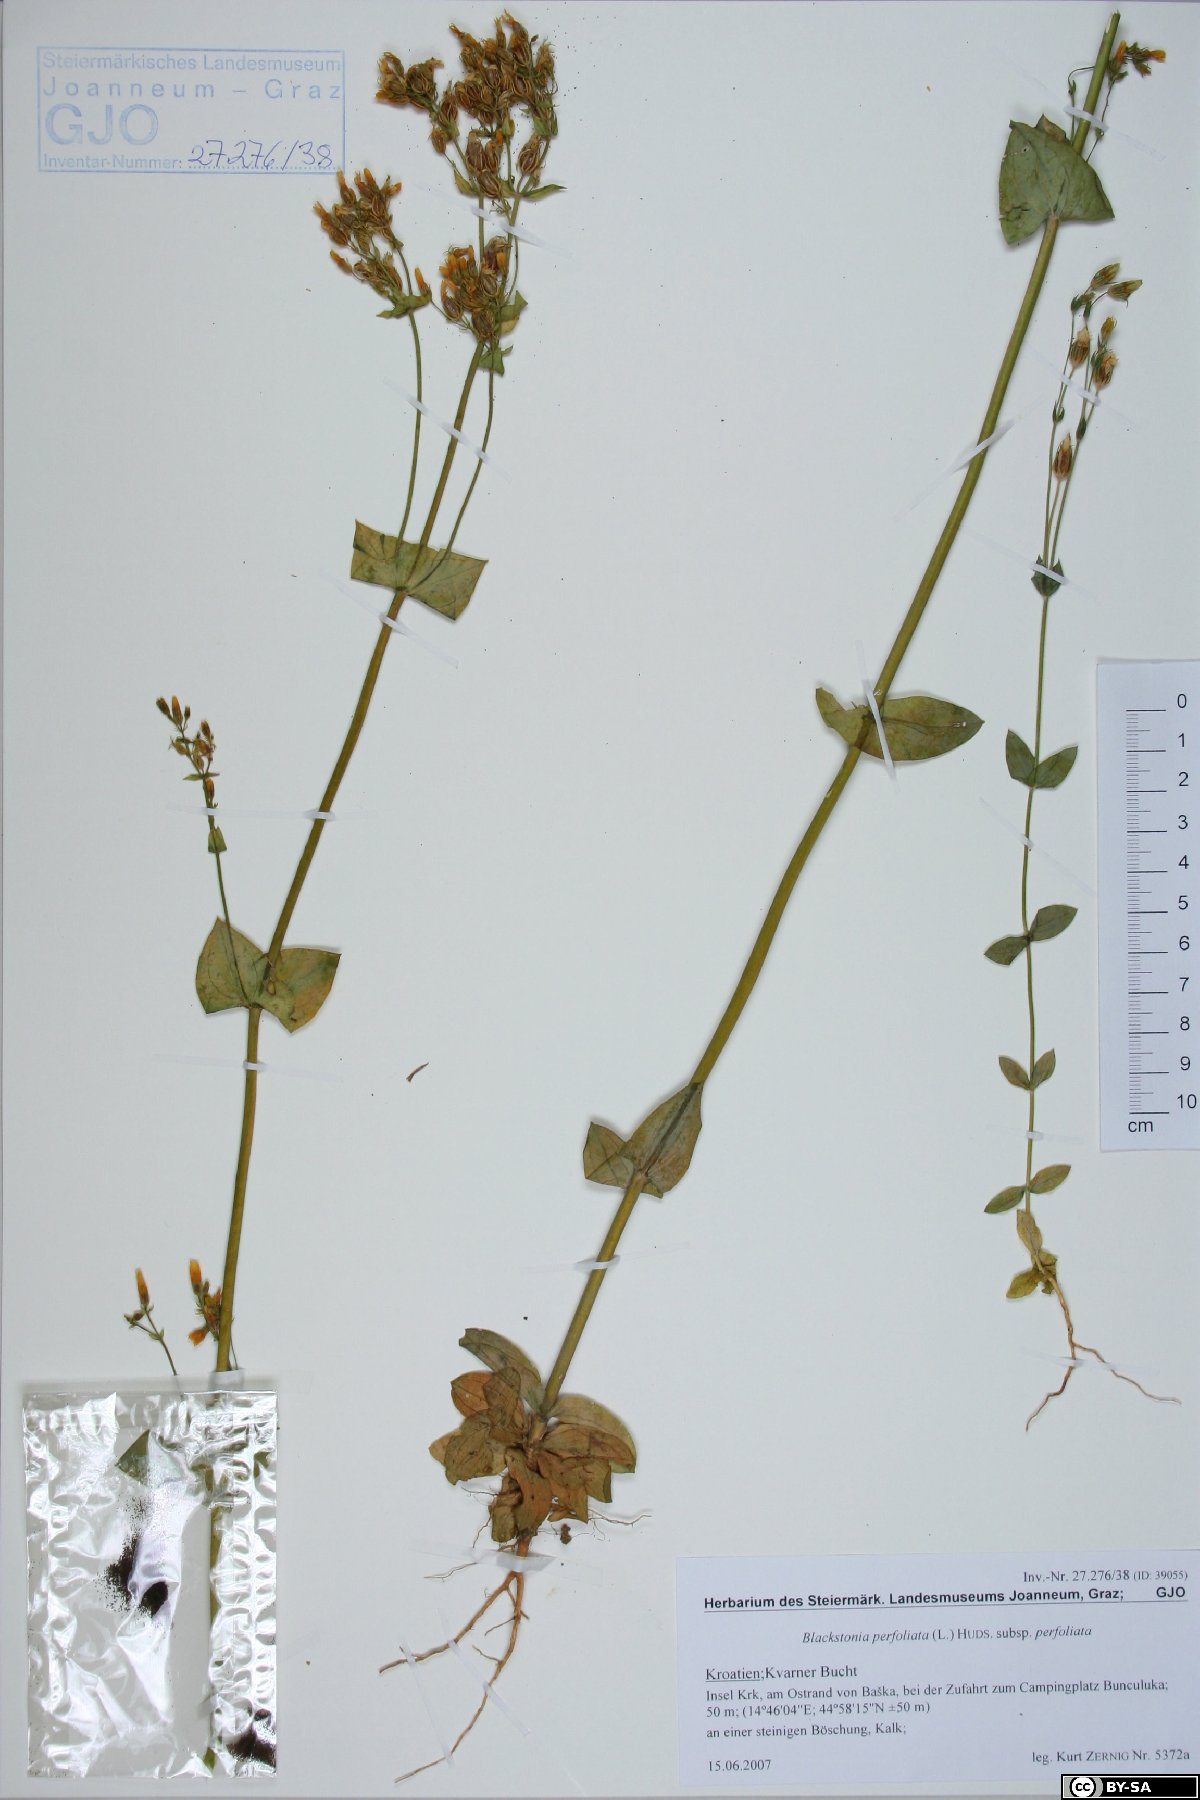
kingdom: Plantae
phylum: Tracheophyta
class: Magnoliopsida
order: Gentianales
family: Gentianaceae
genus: Blackstonia
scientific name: Blackstonia perfoliata
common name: Yellow-wort
